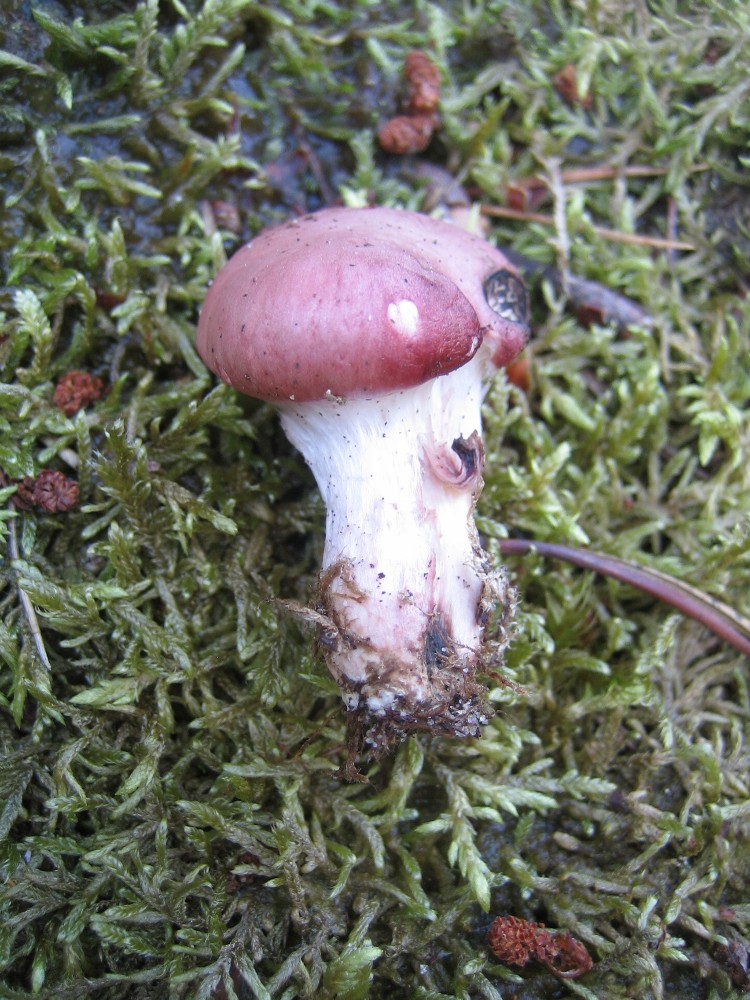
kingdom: Fungi
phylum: Basidiomycota
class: Agaricomycetes
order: Boletales
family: Gomphidiaceae
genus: Gomphidius
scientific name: Gomphidius roseus
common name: rosenrød slimslør
